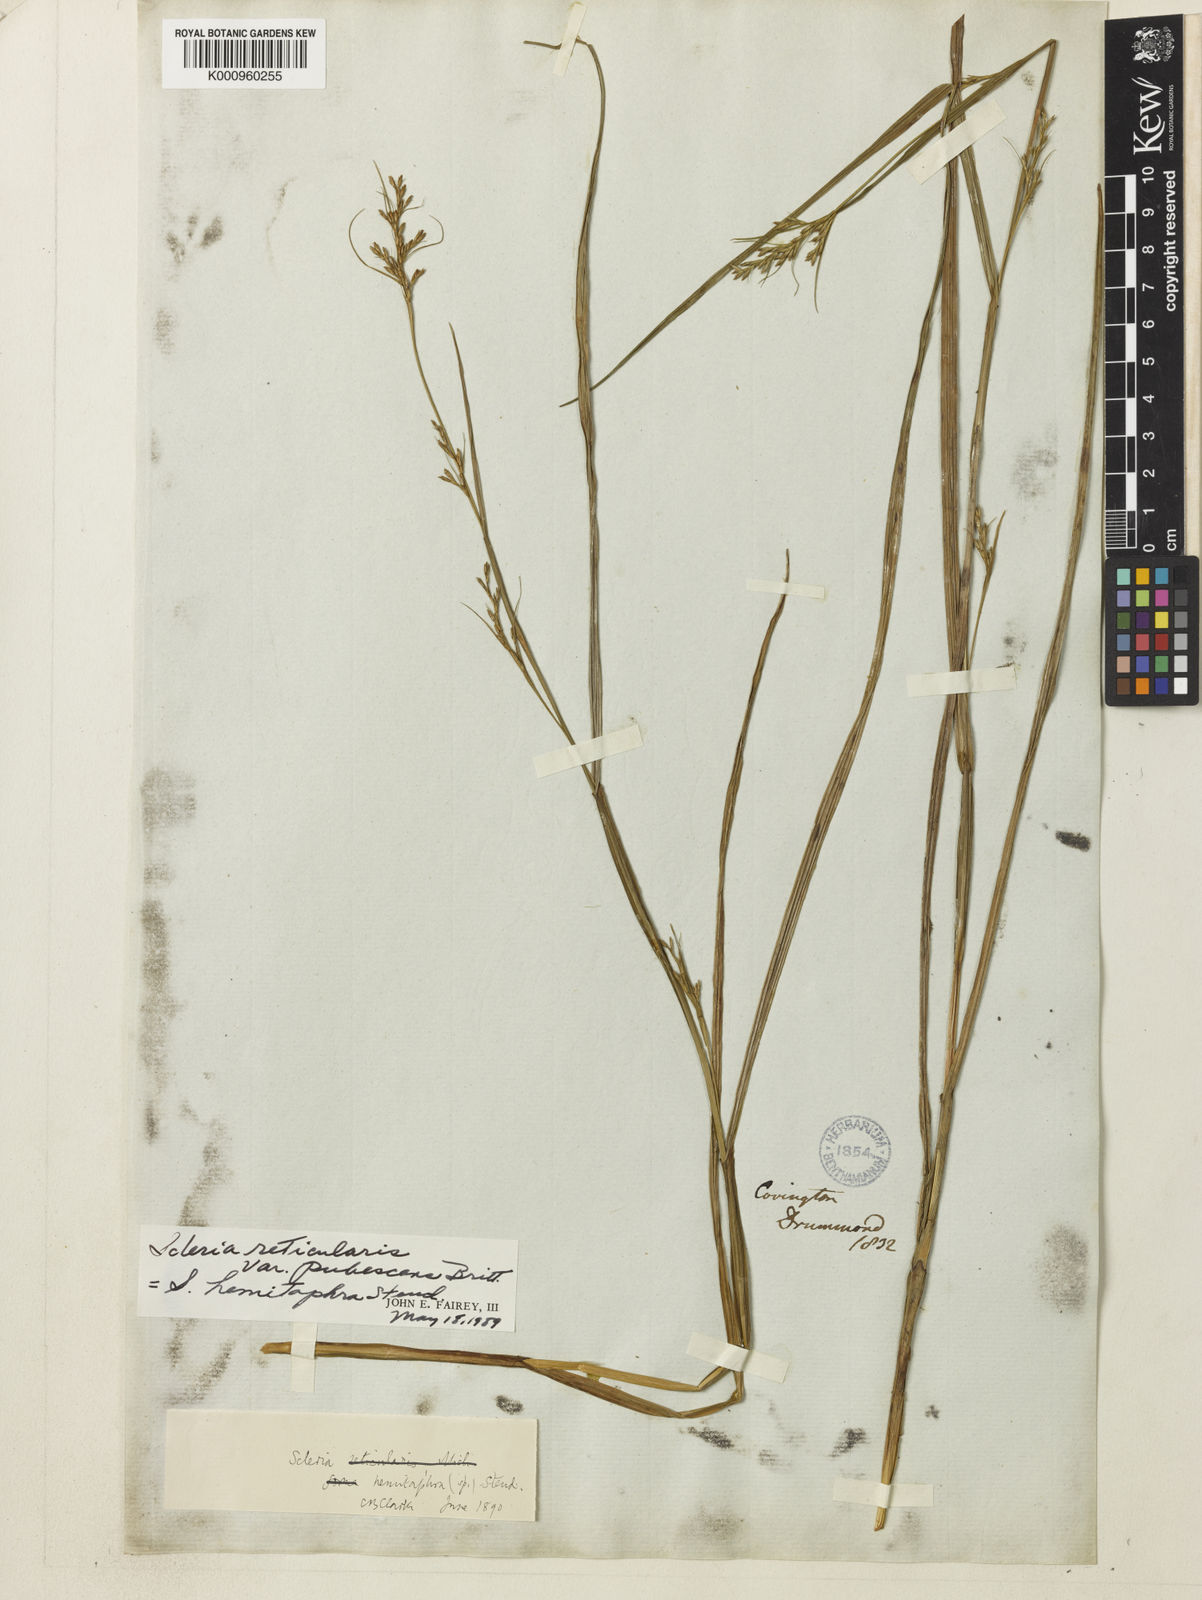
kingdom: Plantae
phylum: Tracheophyta
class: Liliopsida
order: Poales
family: Cyperaceae
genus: Scleria
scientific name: Scleria muehlenbergii
